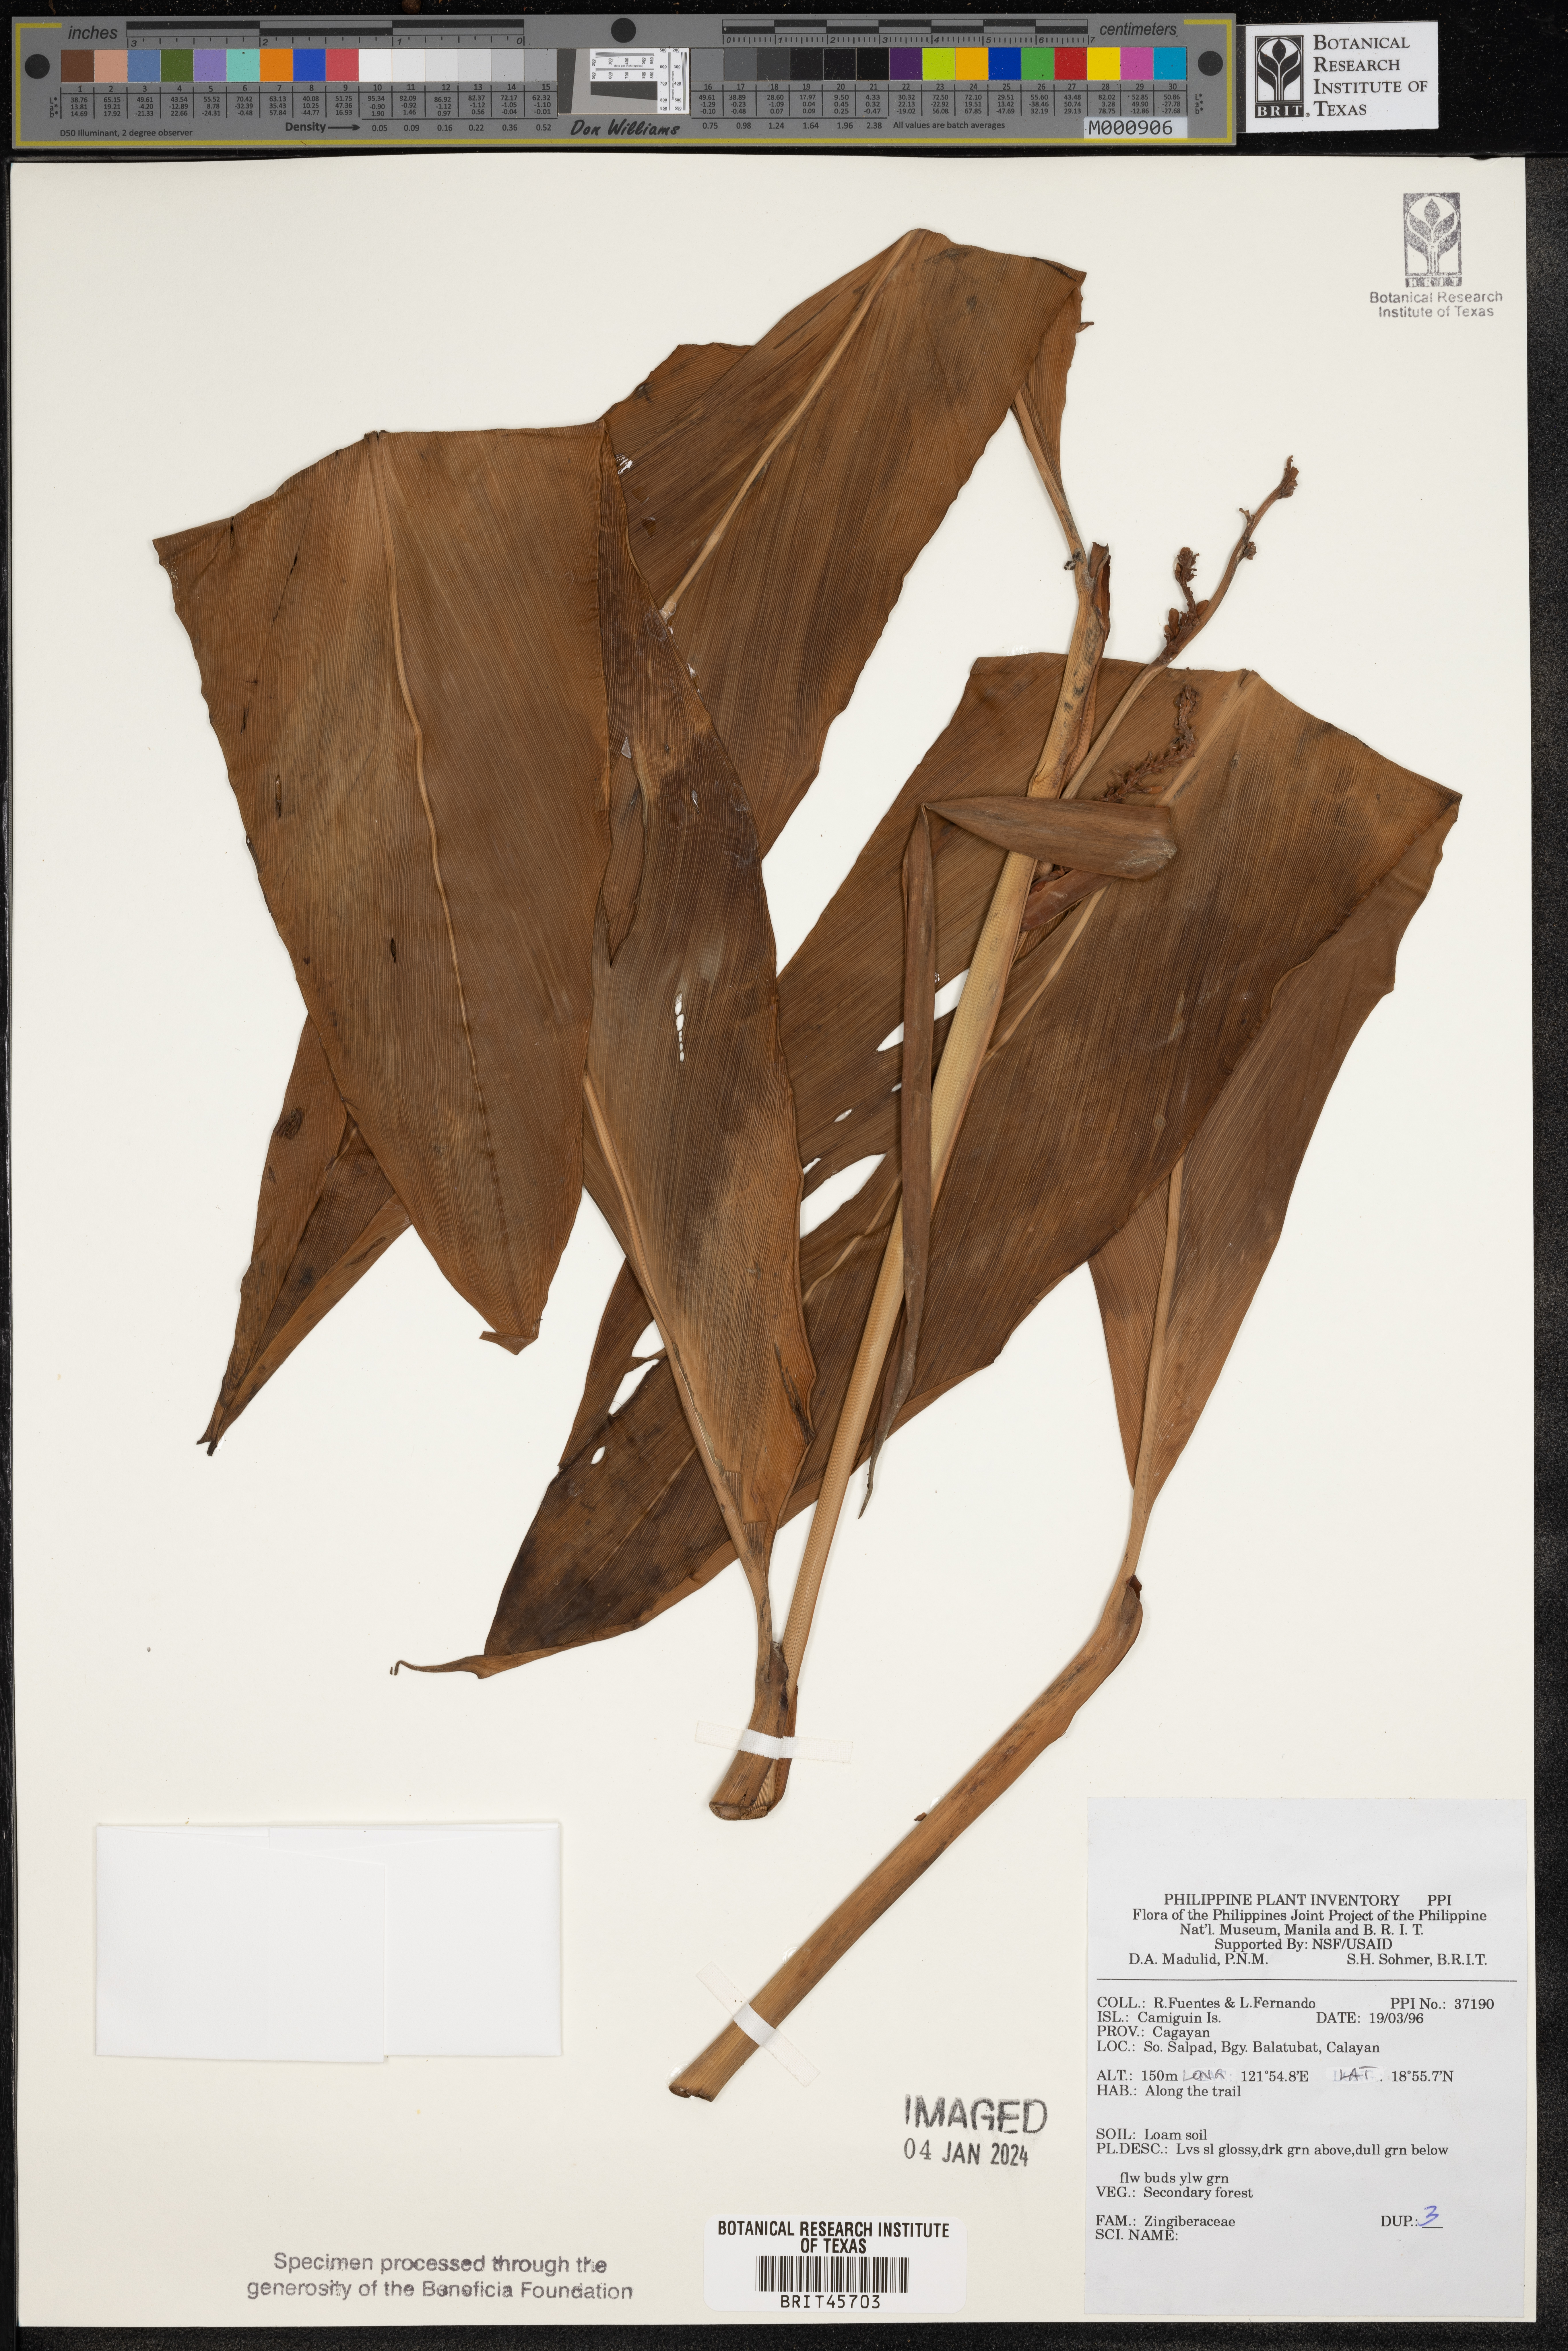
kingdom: Plantae
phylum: Tracheophyta
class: Liliopsida
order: Zingiberales
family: Zingiberaceae
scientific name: Zingiberaceae
